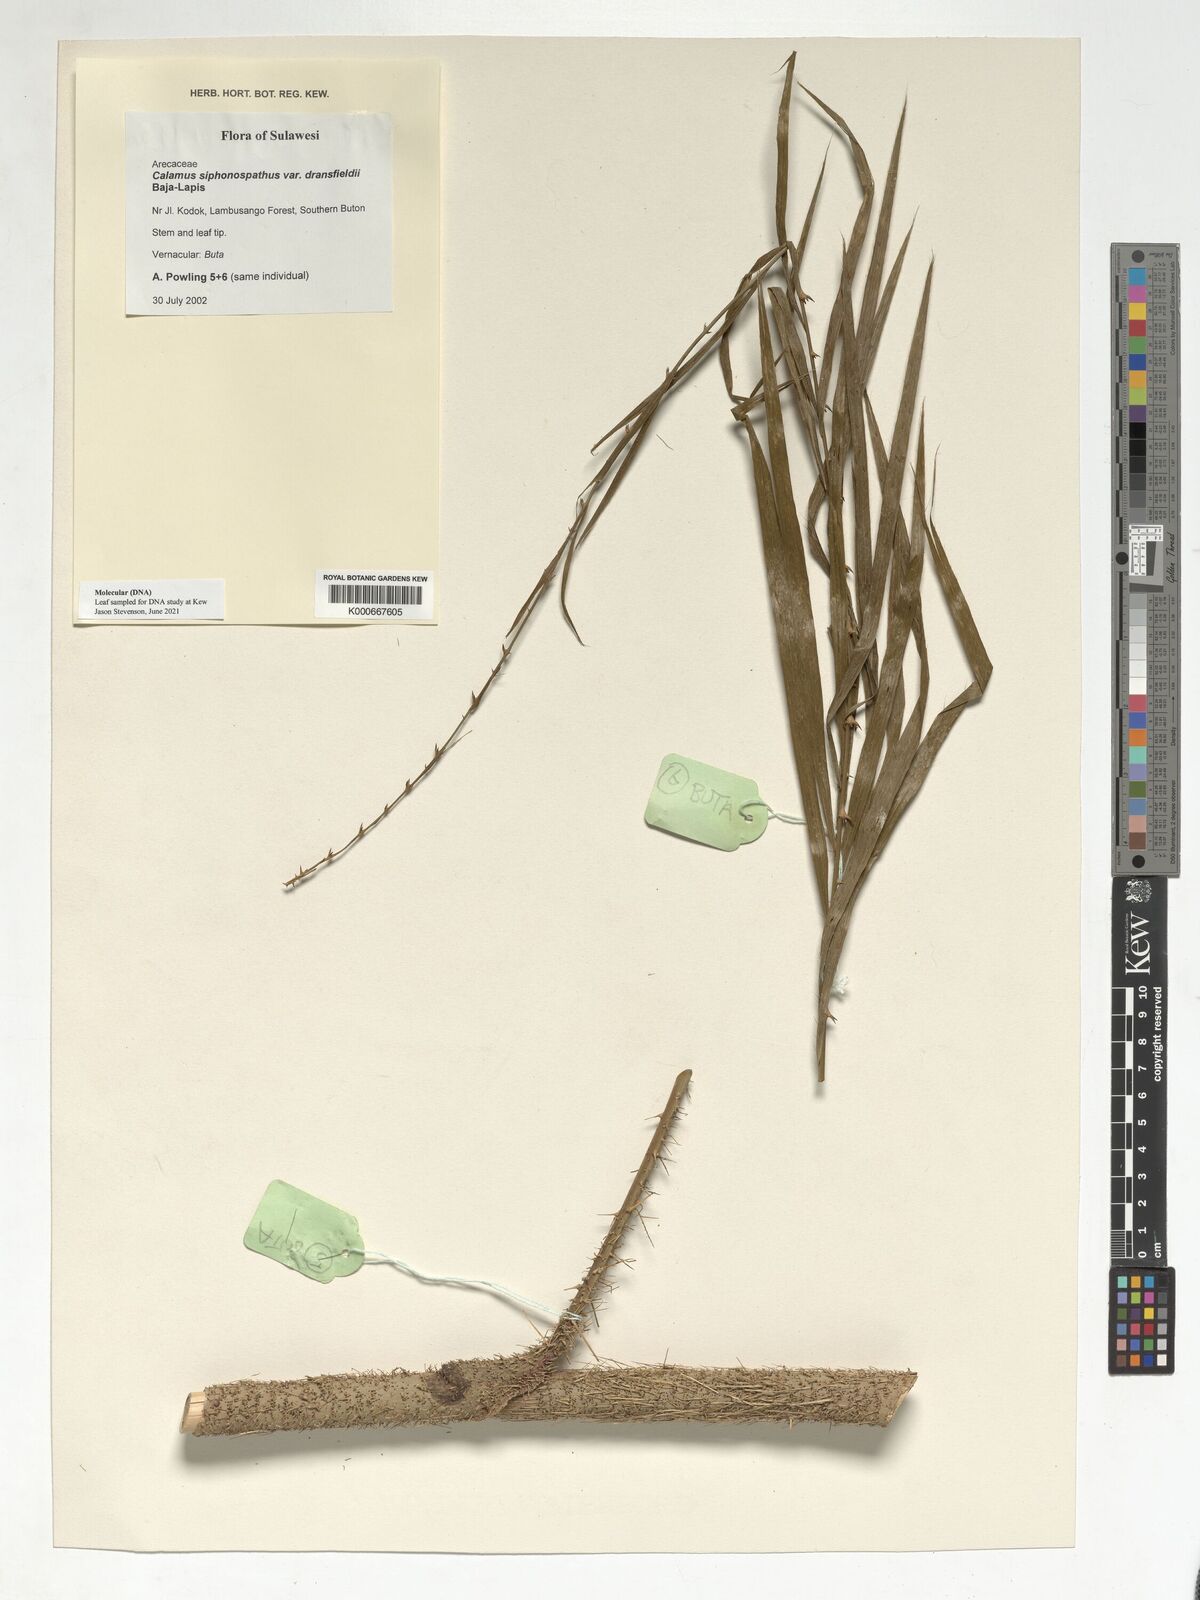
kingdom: Plantae
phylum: Tracheophyta
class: Liliopsida
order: Arecales
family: Arecaceae
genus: Calamus
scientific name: Calamus siphonospathus
